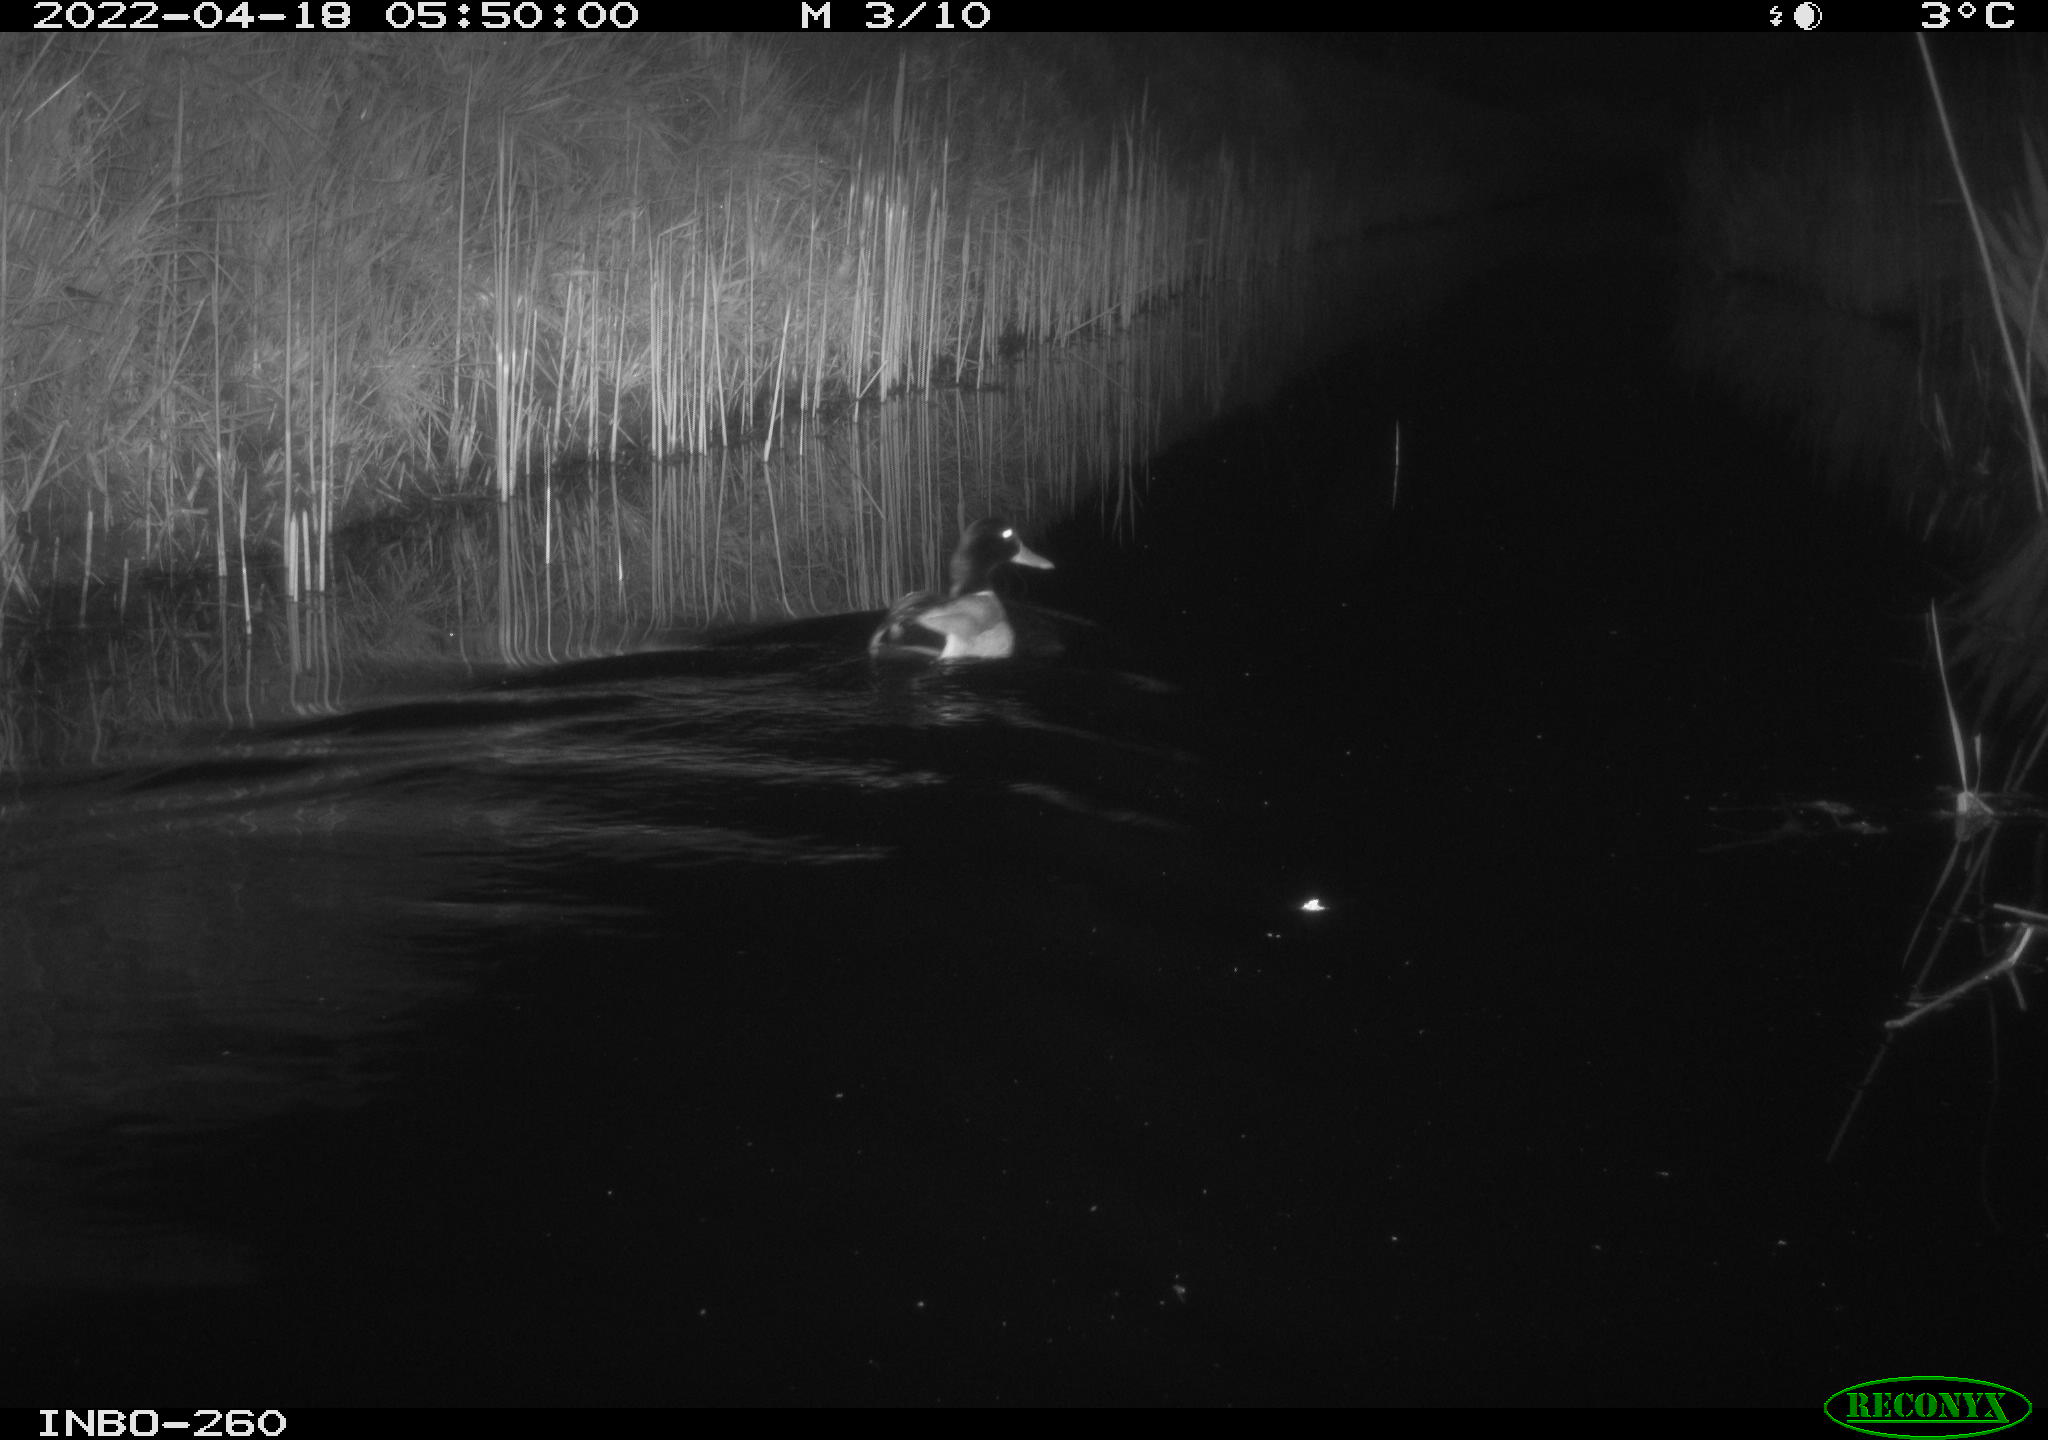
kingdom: Animalia
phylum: Chordata
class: Aves
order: Anseriformes
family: Anatidae
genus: Anas
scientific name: Anas platyrhynchos
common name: Mallard
